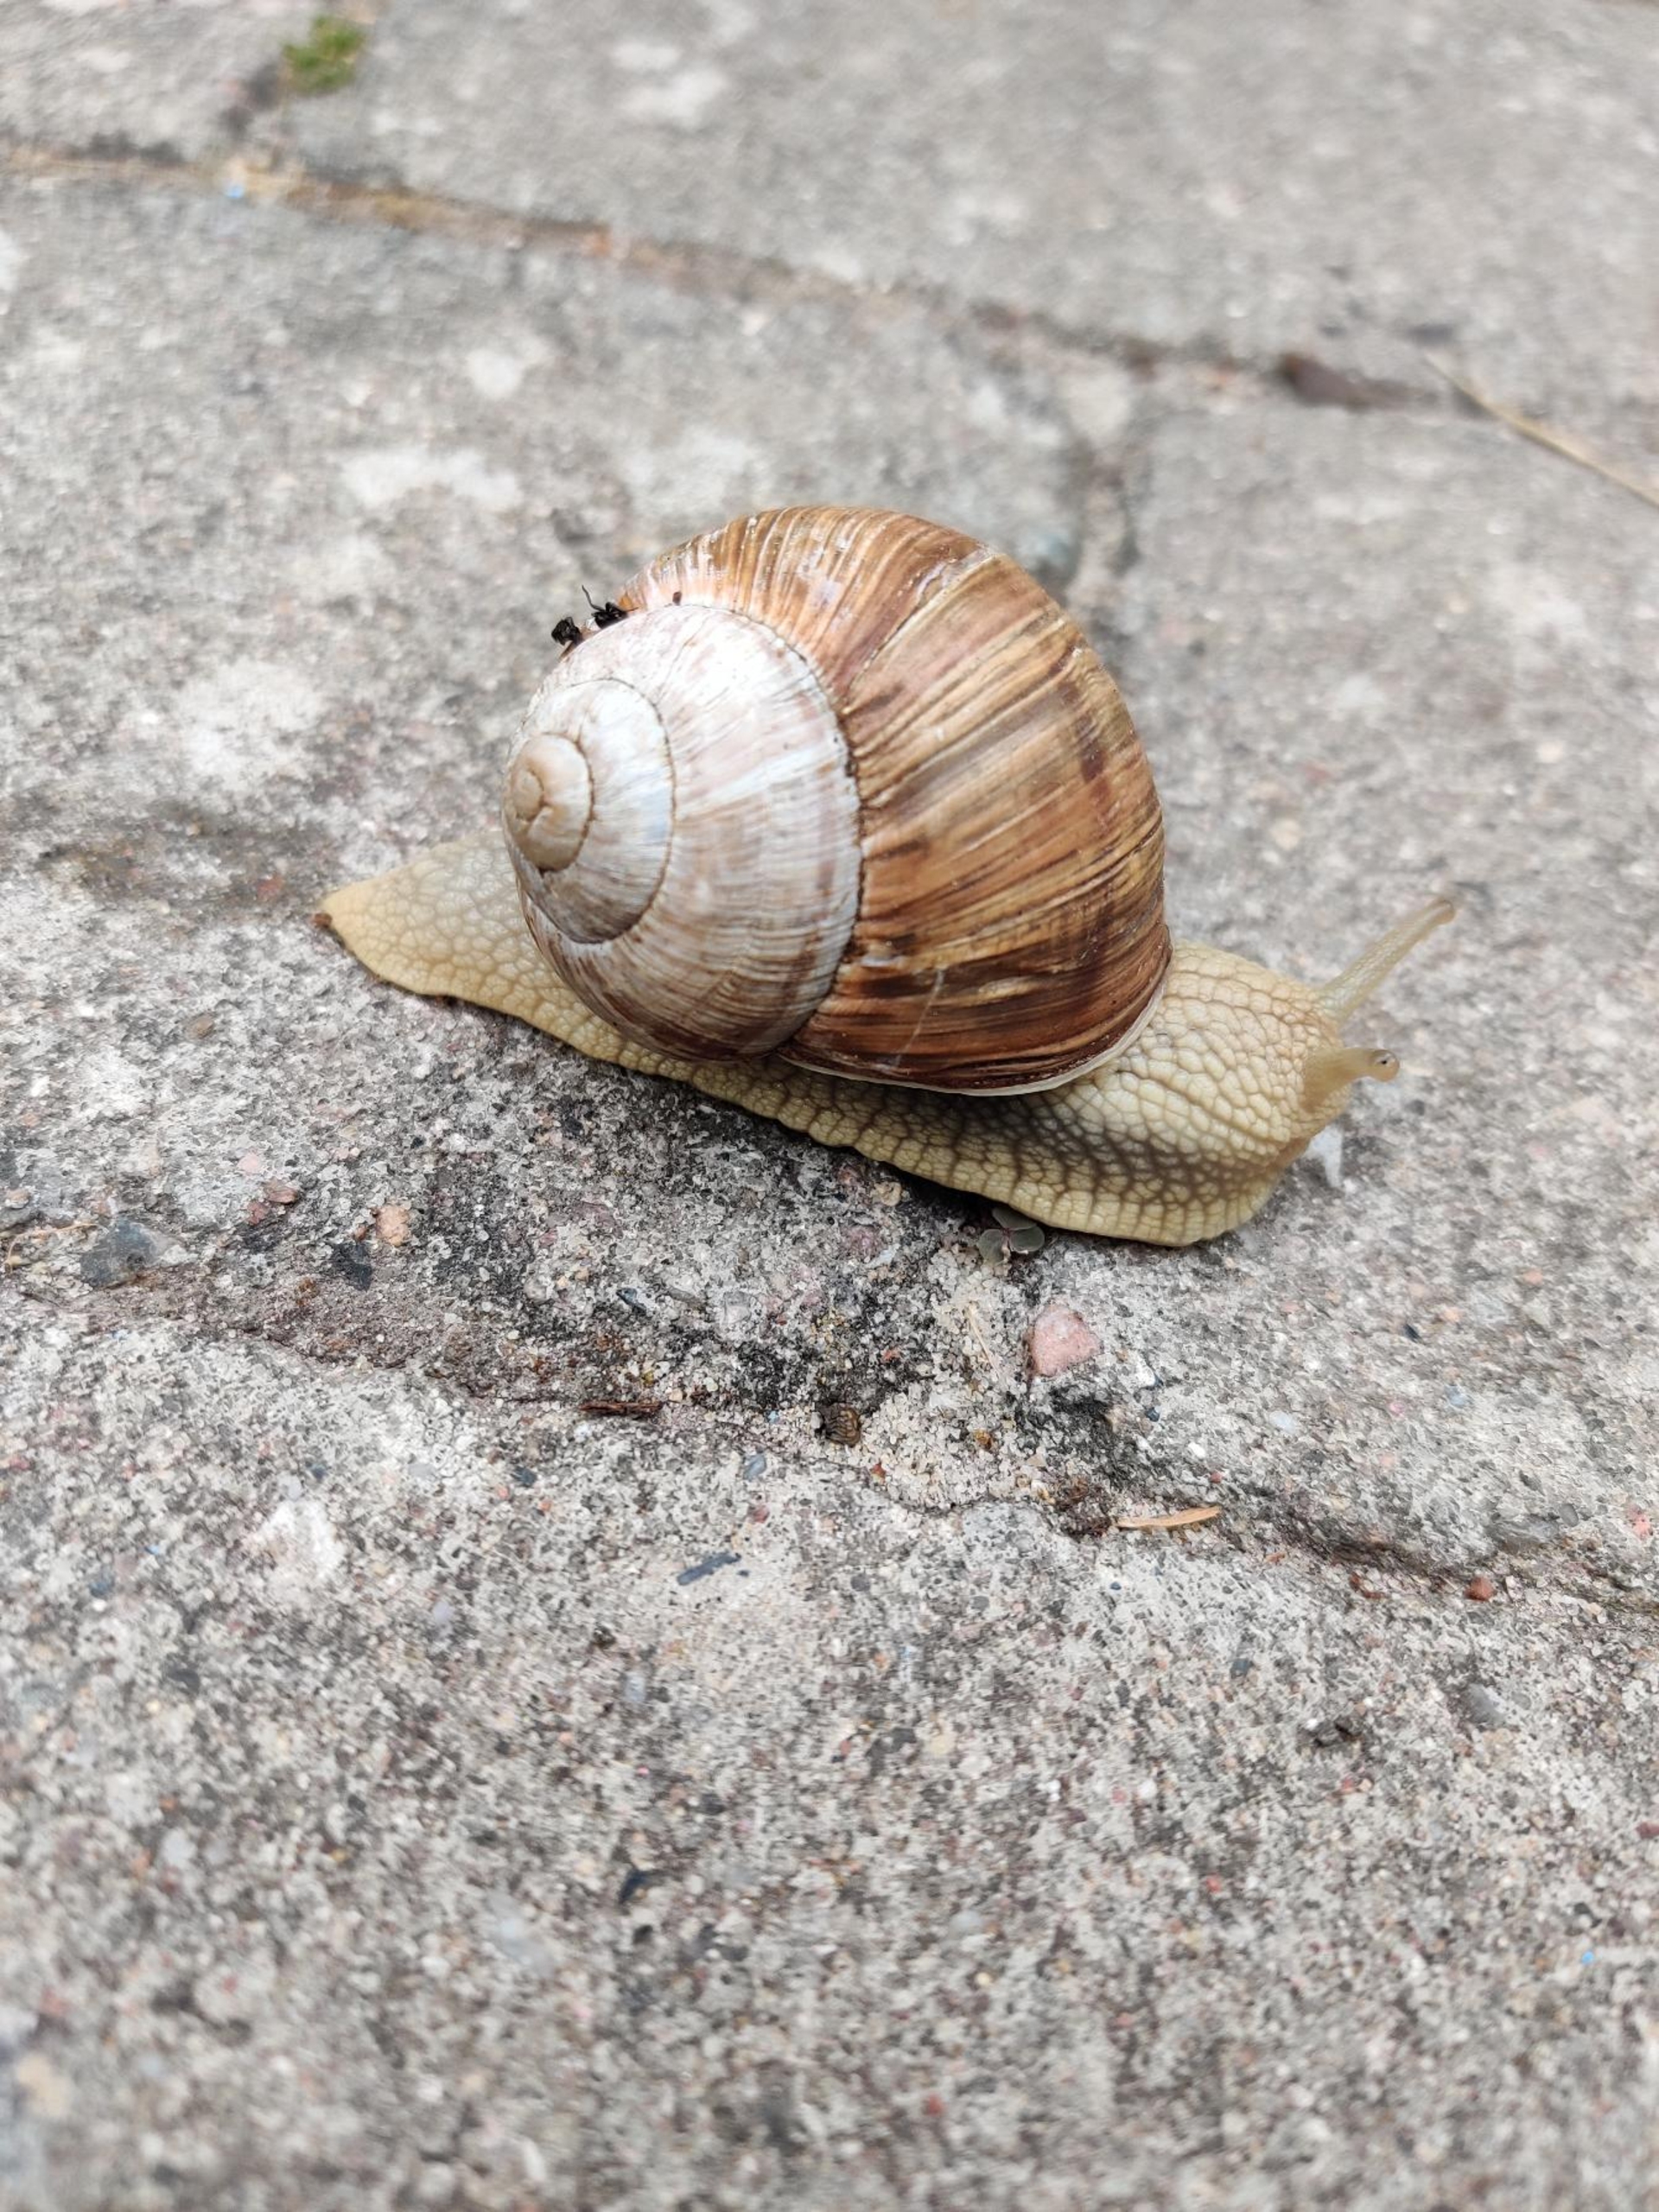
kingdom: Animalia
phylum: Mollusca
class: Gastropoda
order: Stylommatophora
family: Helicidae
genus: Helix
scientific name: Helix pomatia
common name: Vinbjergsnegl
